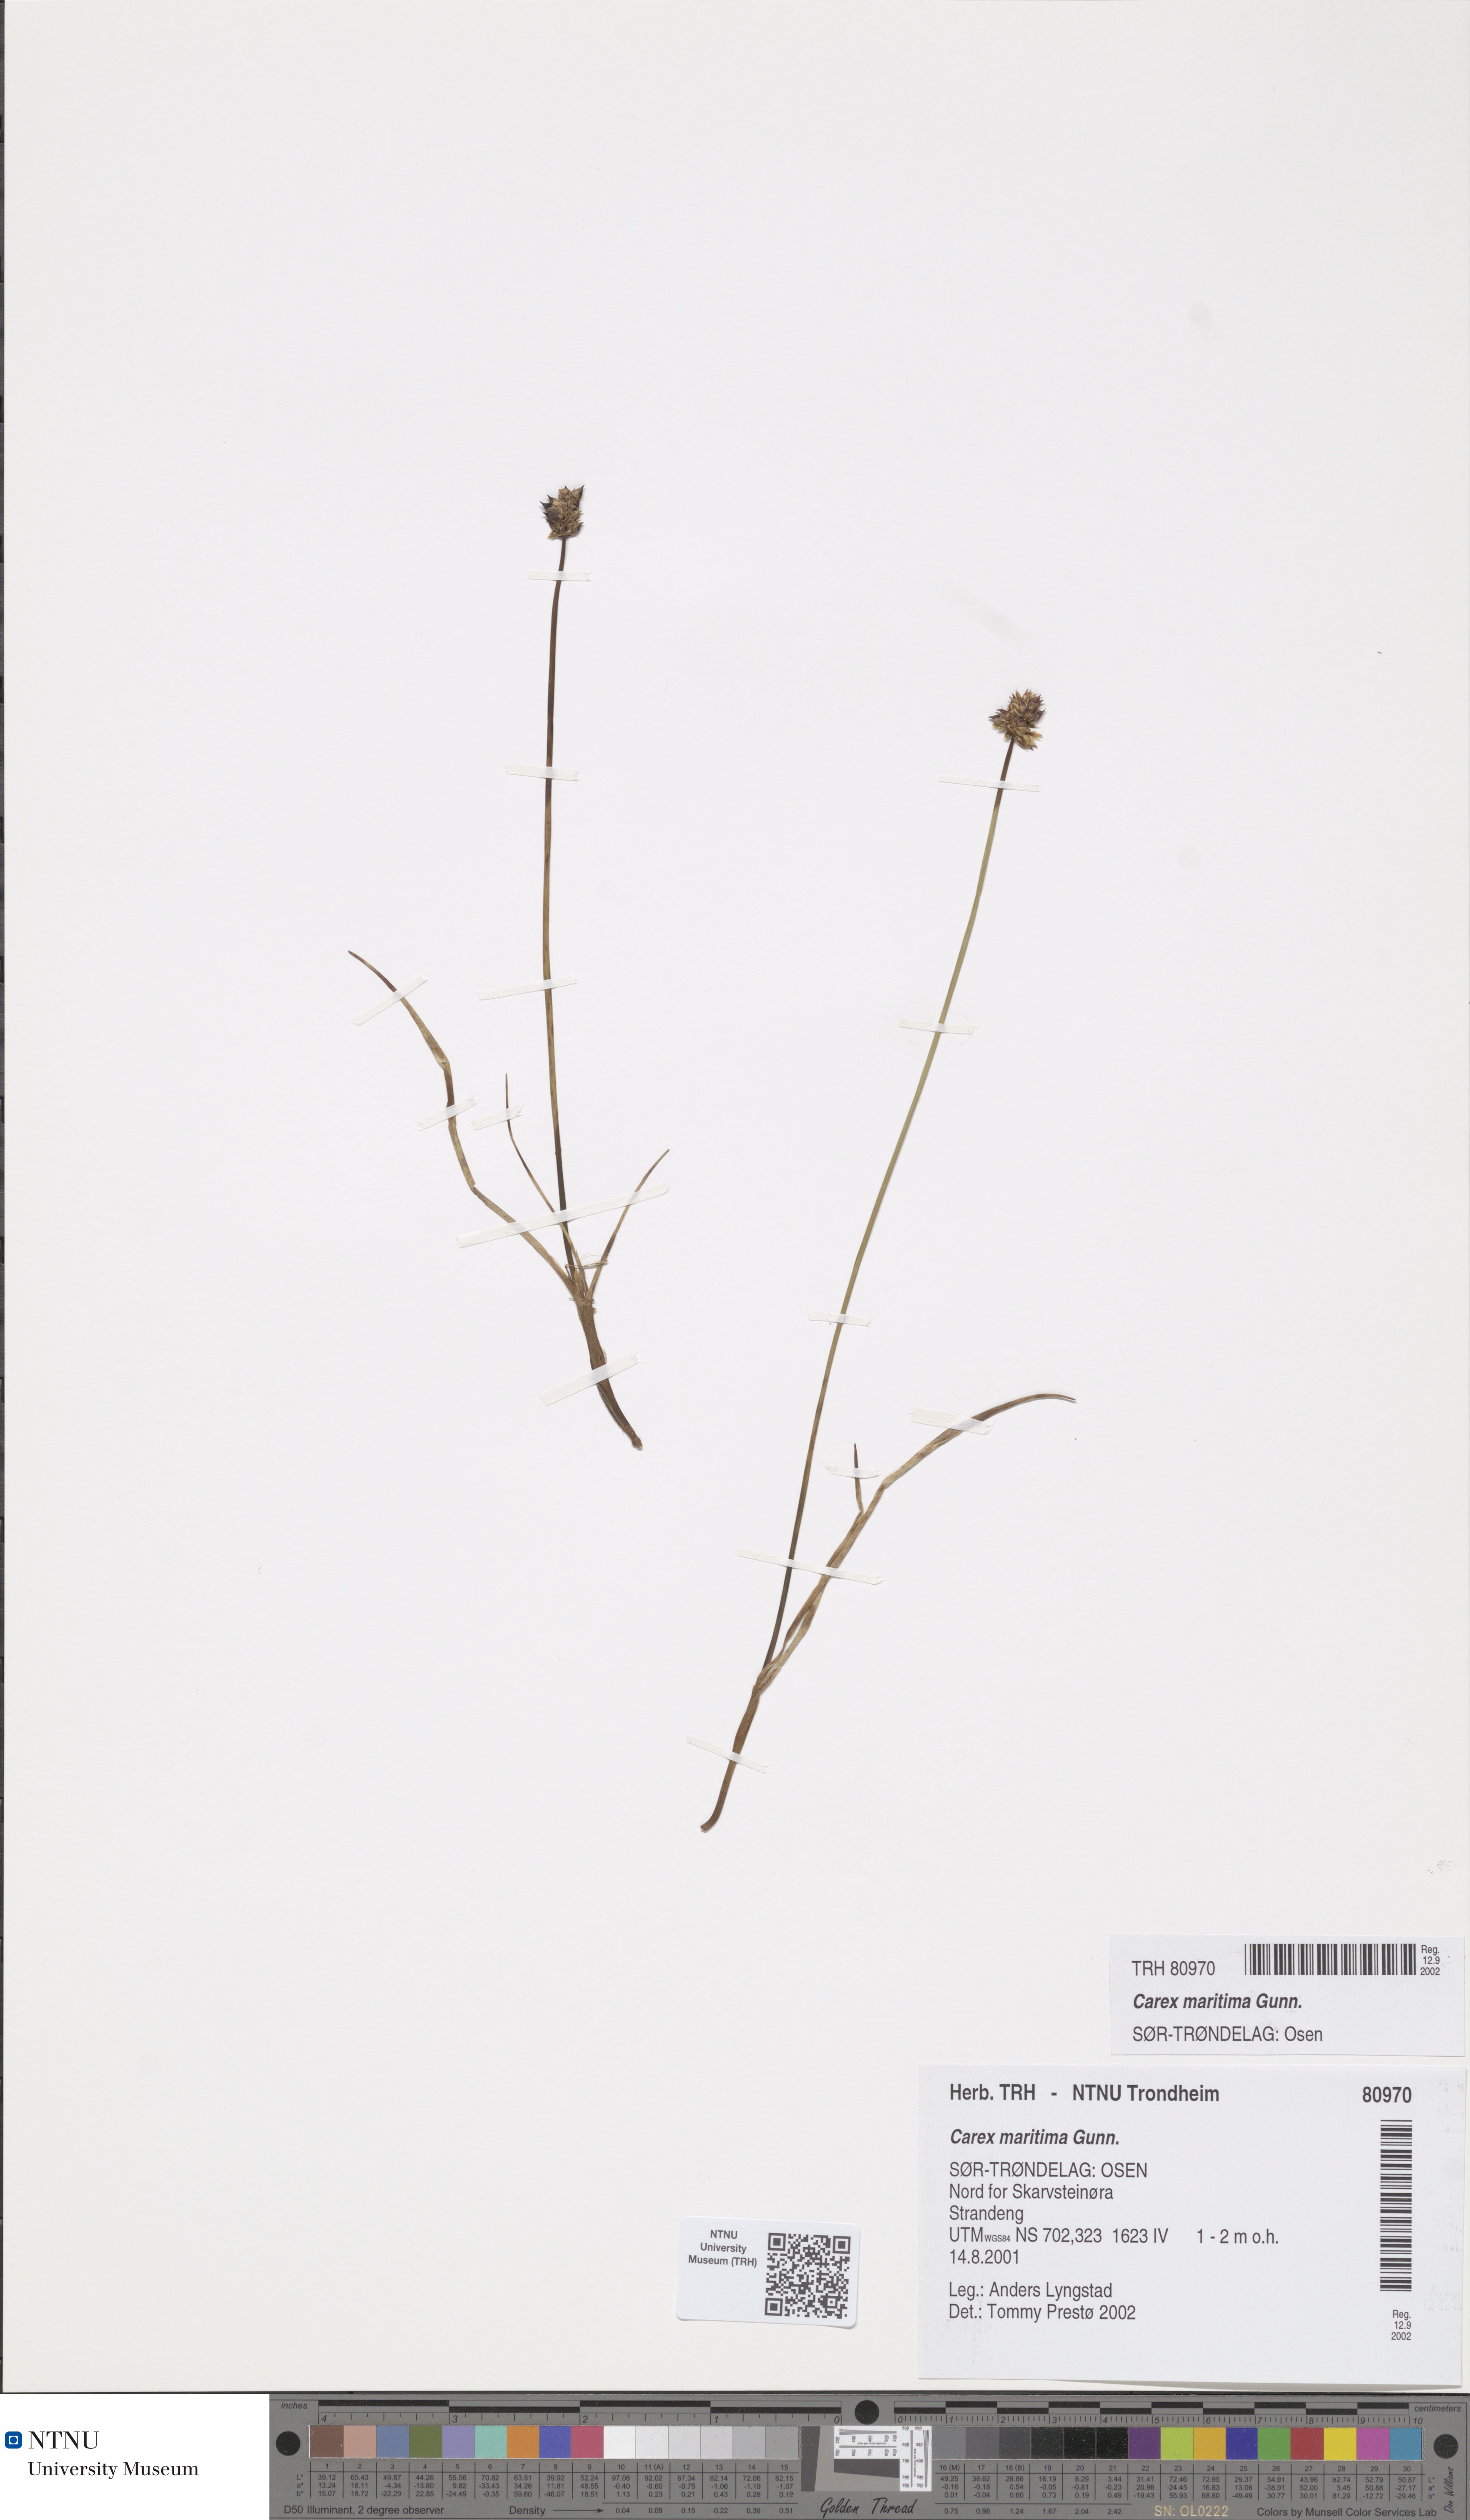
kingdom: Plantae
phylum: Tracheophyta
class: Liliopsida
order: Poales
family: Cyperaceae
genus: Carex
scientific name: Carex maritima
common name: Curved sedge
